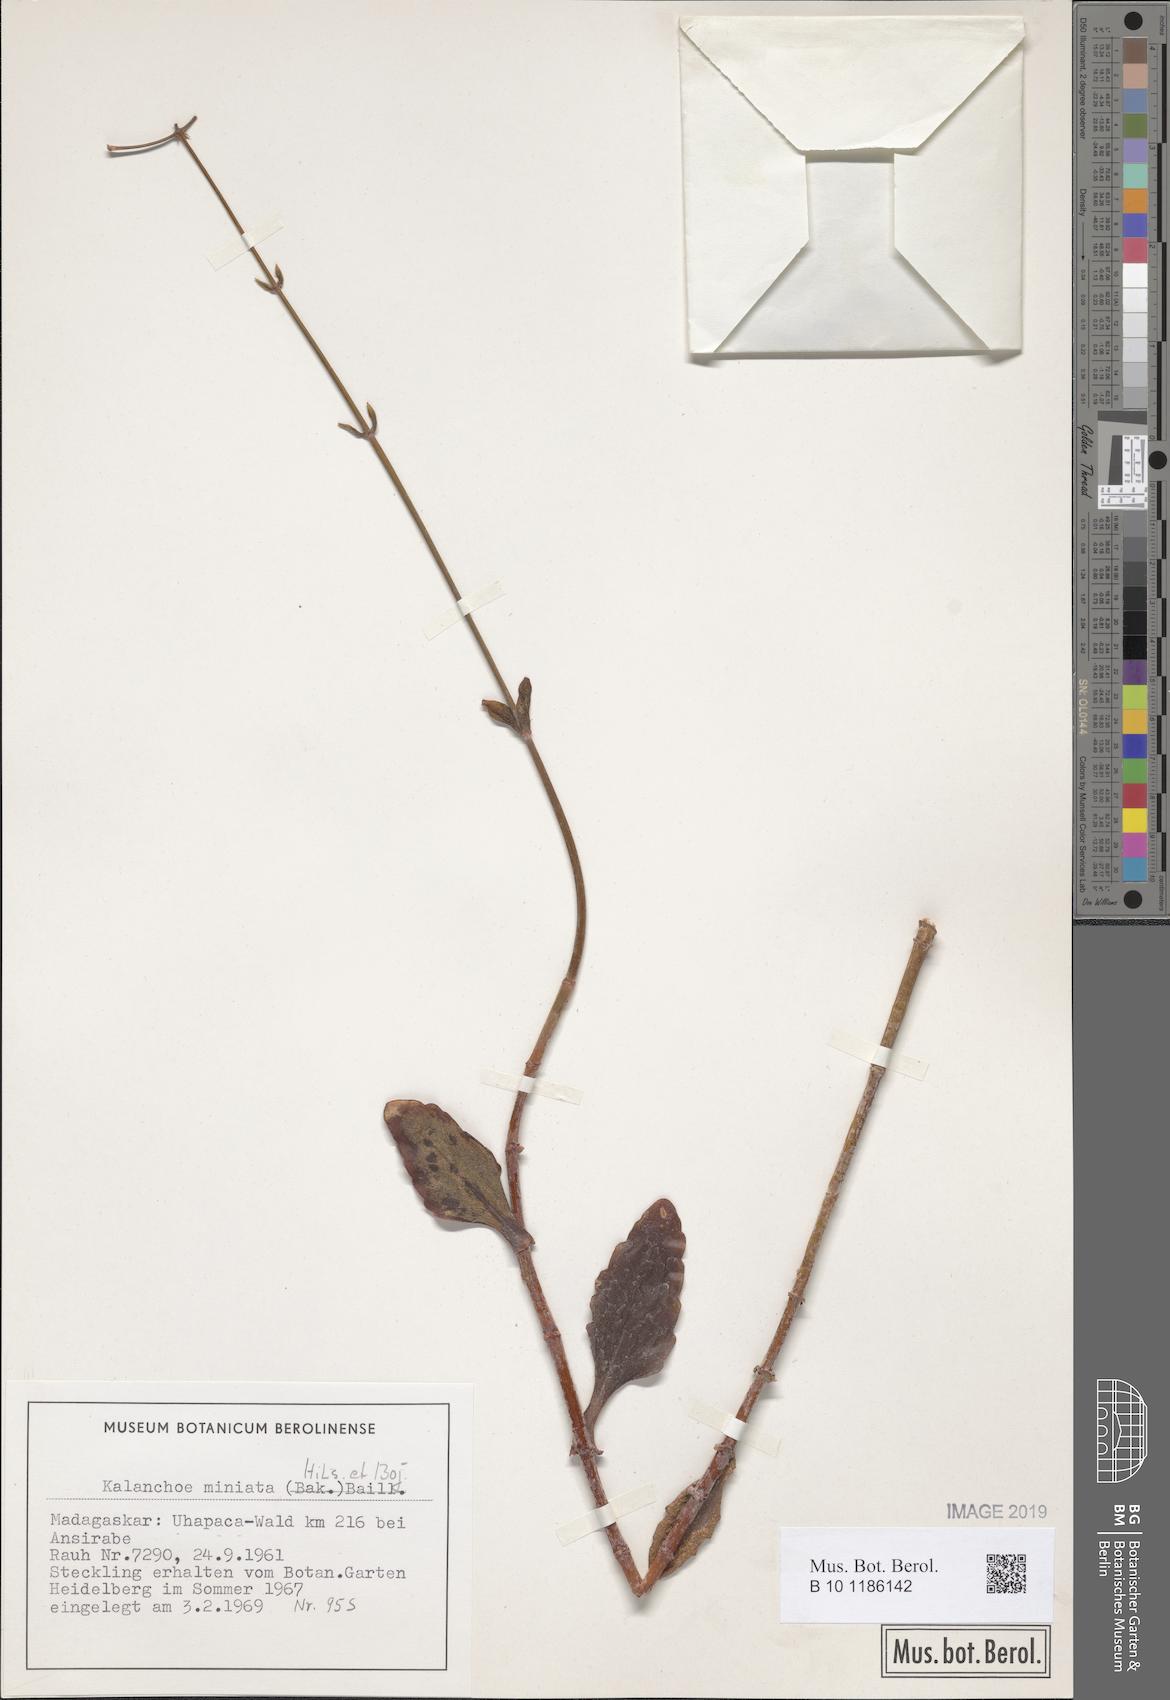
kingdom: Plantae
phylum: Tracheophyta
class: Magnoliopsida
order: Saxifragales
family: Crassulaceae
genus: Kalanchoe
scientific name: Kalanchoe miniata
